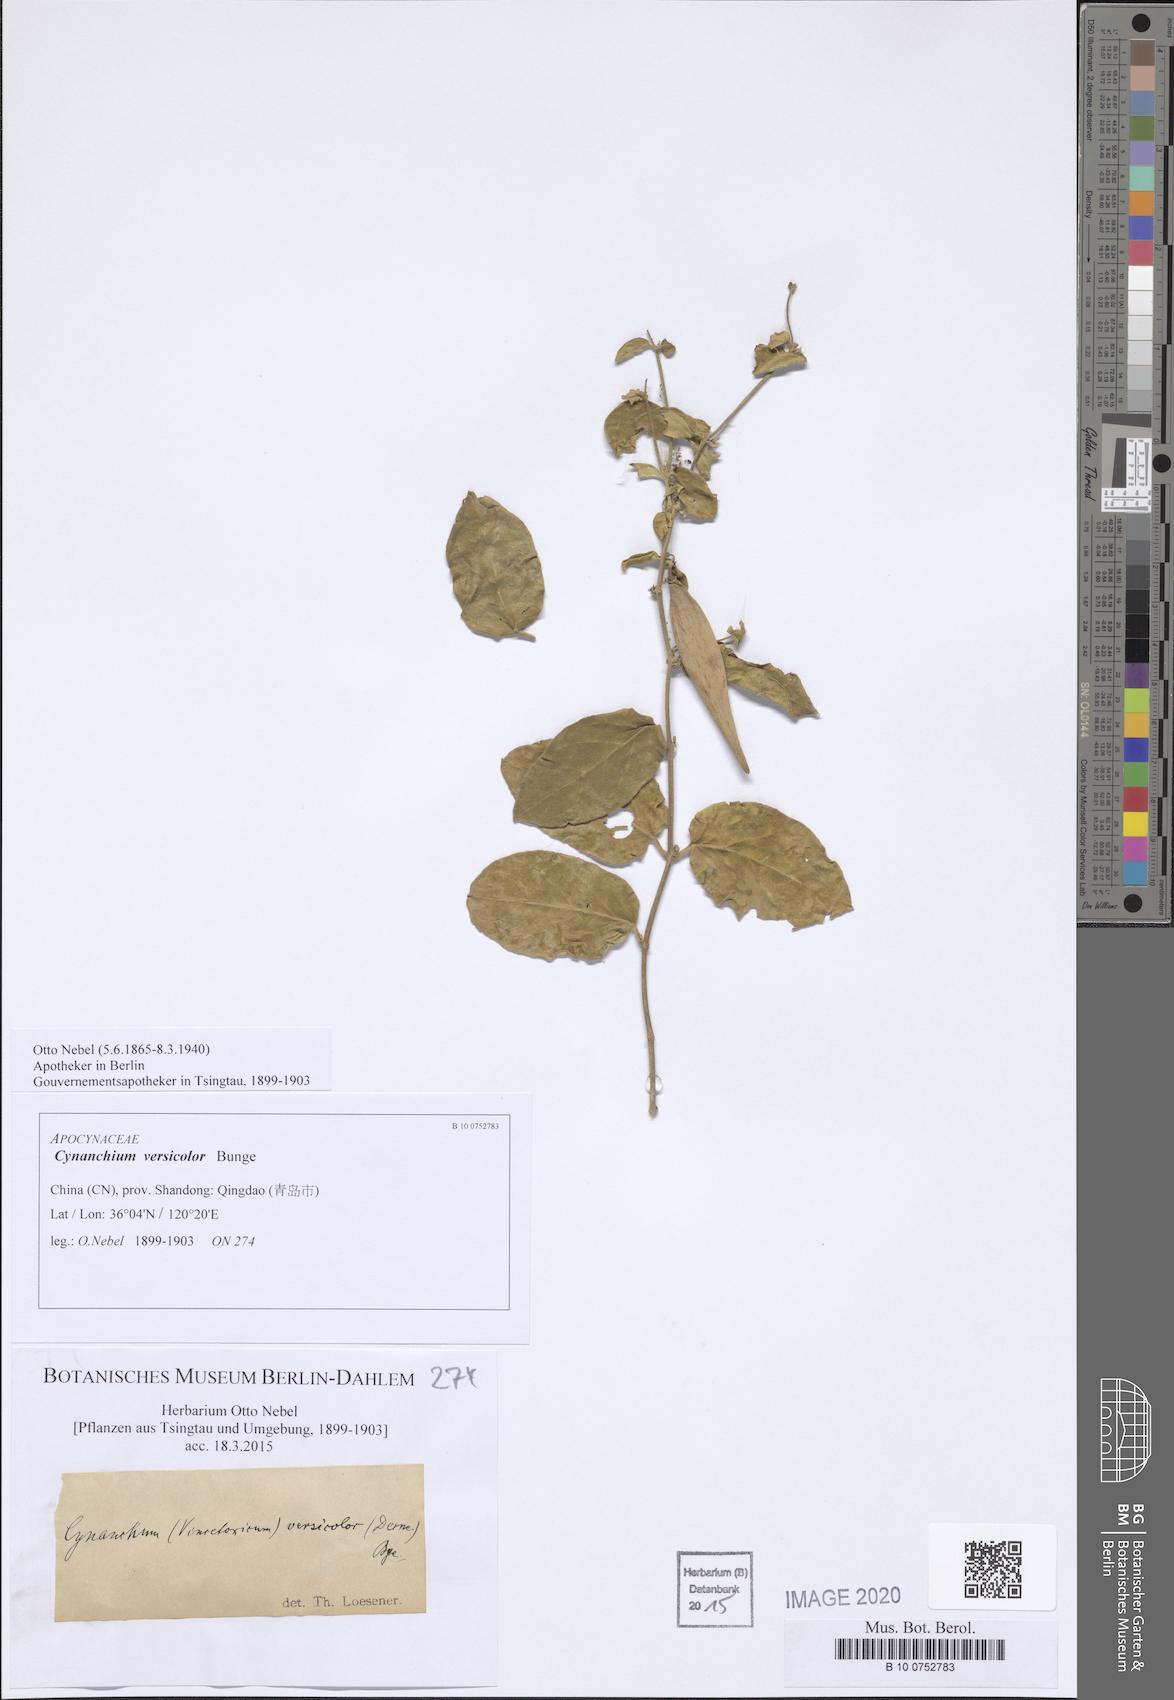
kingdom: Plantae
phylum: Tracheophyta
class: Magnoliopsida
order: Gentianales
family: Apocynaceae
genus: Vincetoxicum
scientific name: Vincetoxicum versicolor
